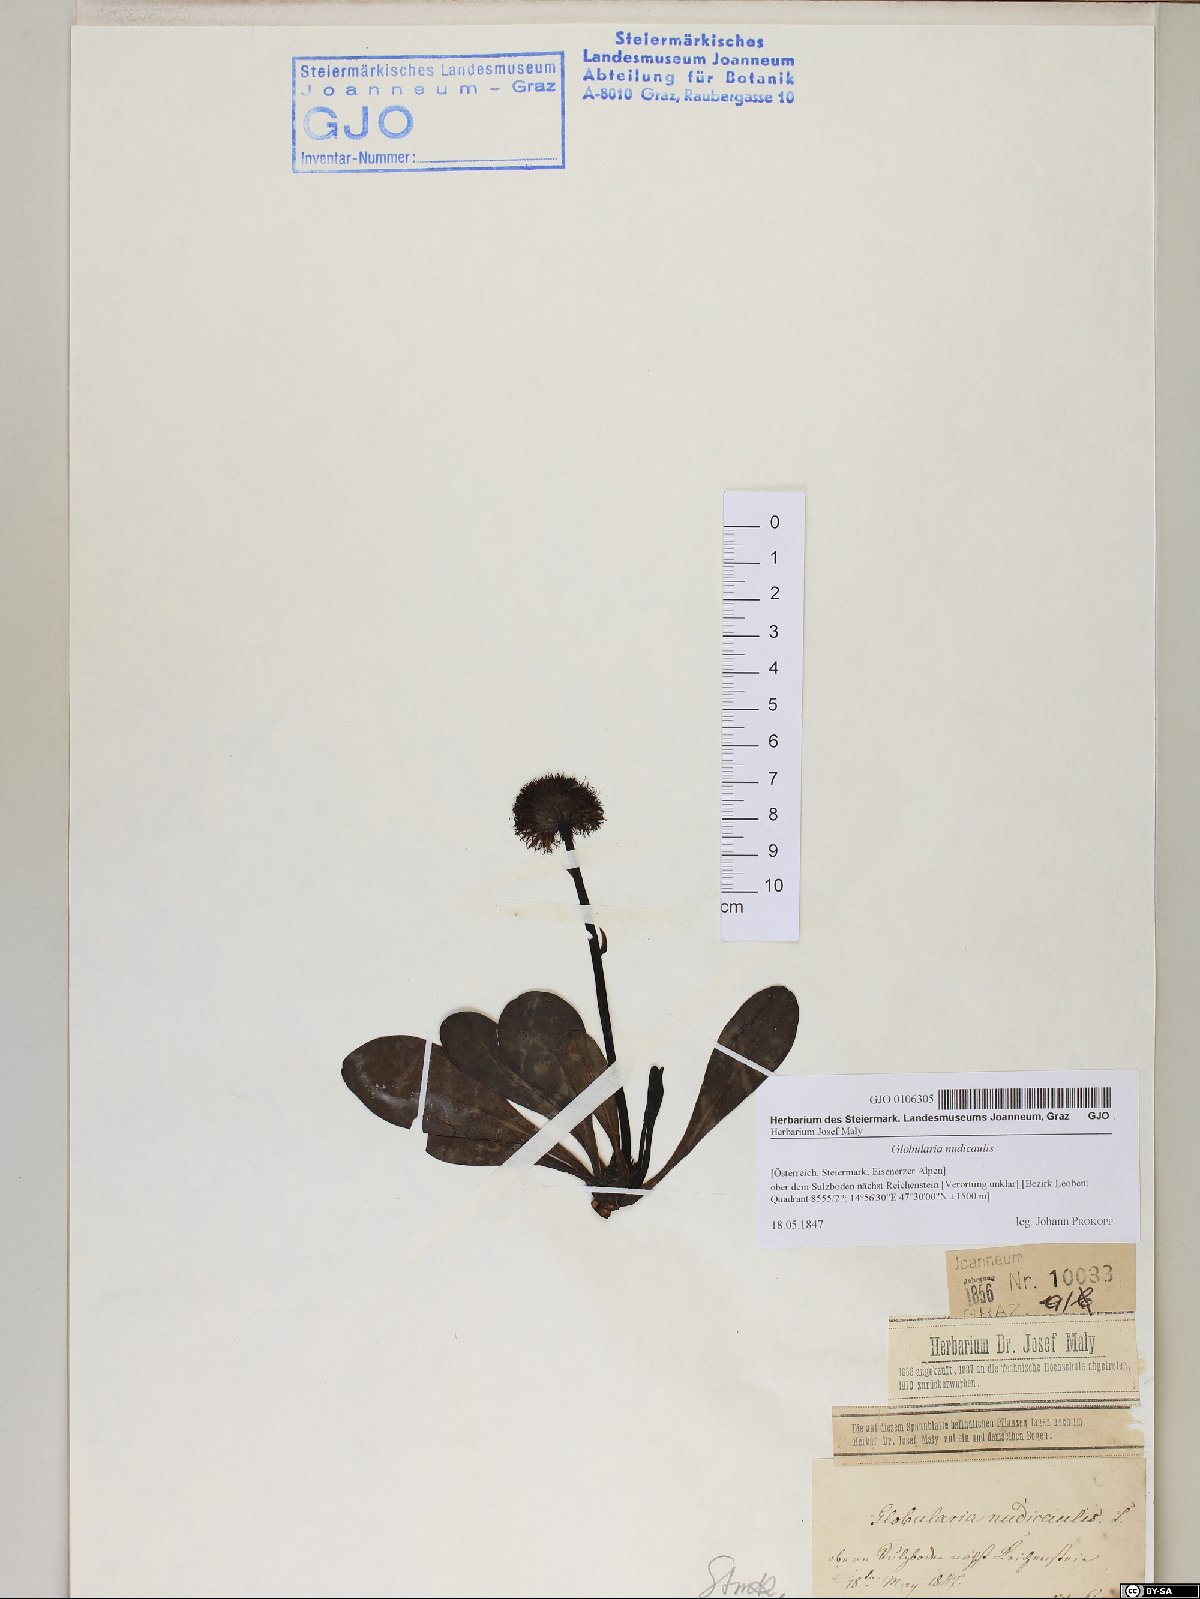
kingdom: Plantae
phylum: Tracheophyta
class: Magnoliopsida
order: Lamiales
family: Plantaginaceae
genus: Globularia
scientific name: Globularia nudicaulis
